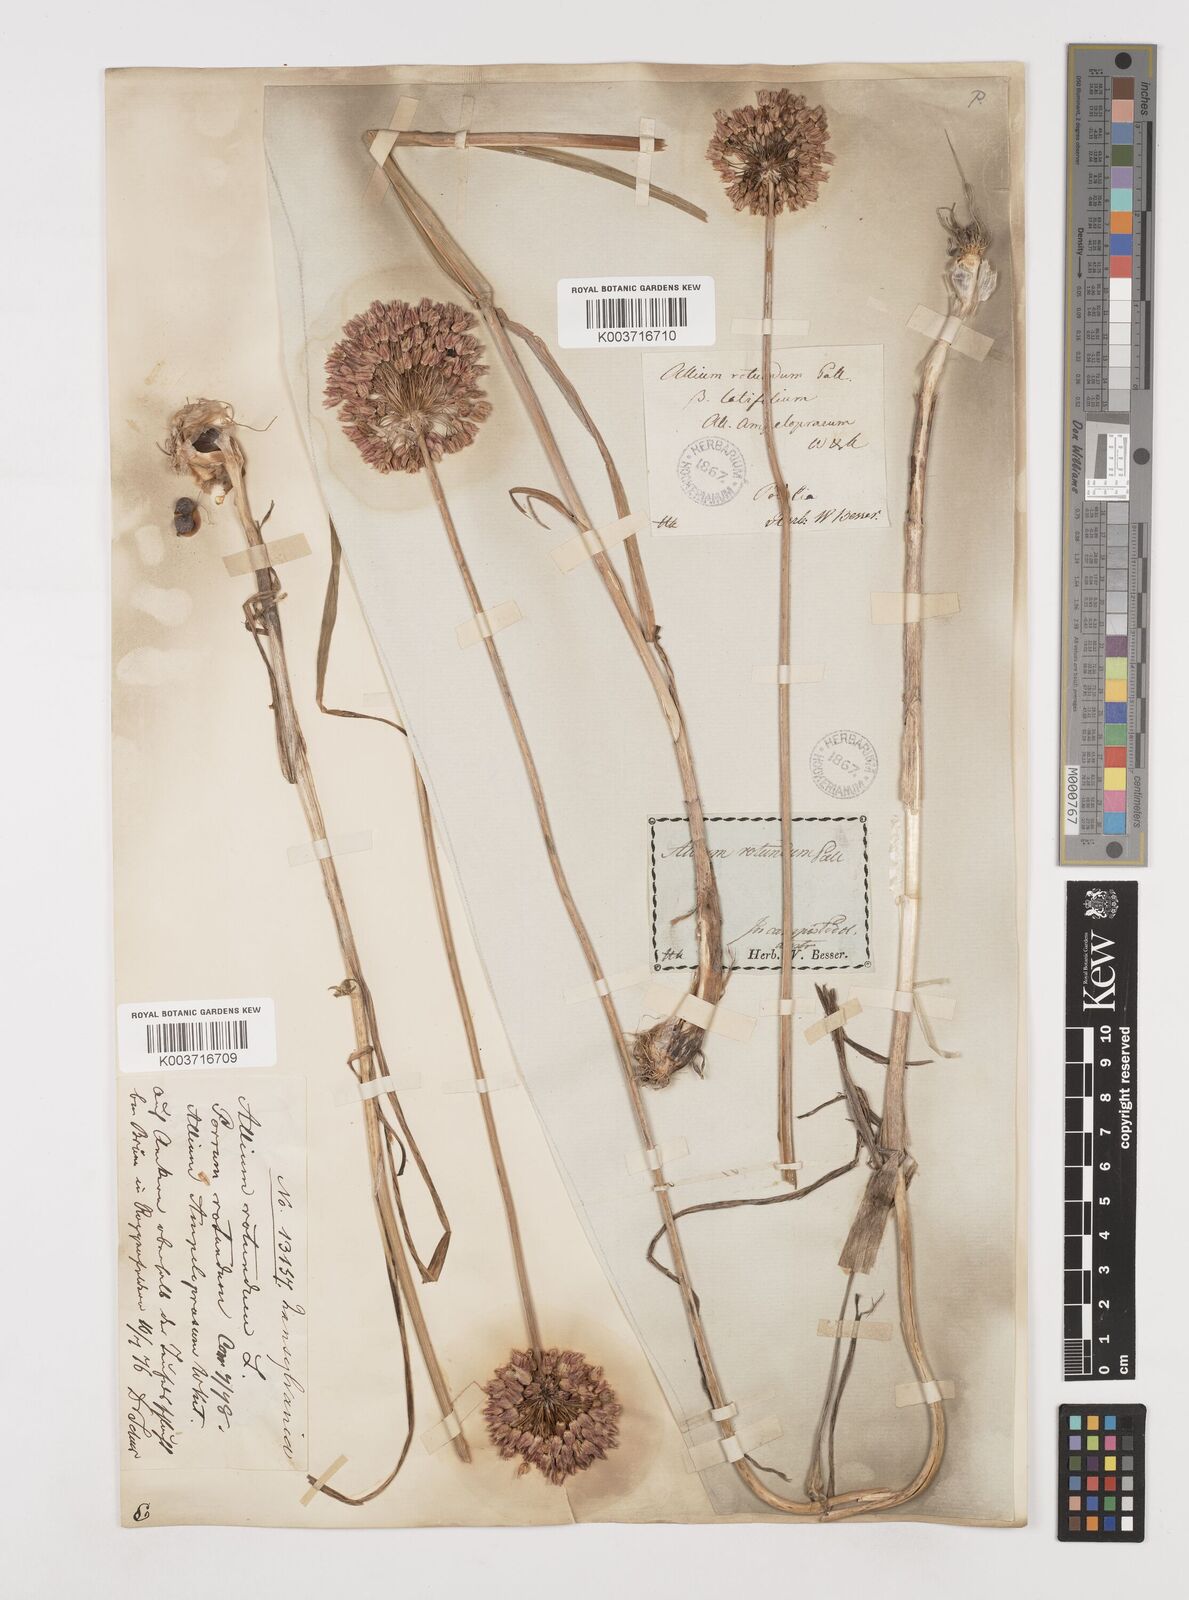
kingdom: Plantae
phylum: Tracheophyta
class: Liliopsida
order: Asparagales
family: Amaryllidaceae
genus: Allium
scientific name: Allium rotundum
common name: Sand leek
